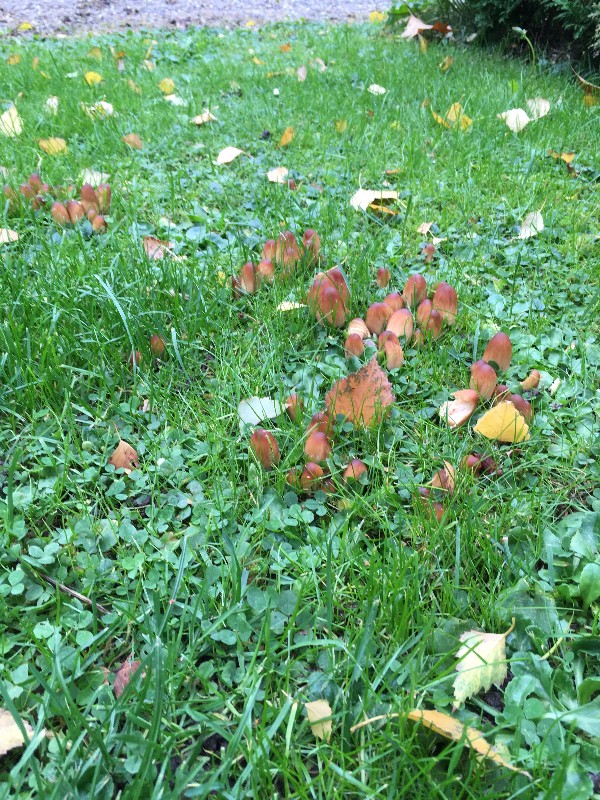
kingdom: Fungi
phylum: Basidiomycota
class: Agaricomycetes
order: Agaricales
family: Psathyrellaceae
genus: Coprinellus
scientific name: Coprinellus micaceus
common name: glimmer-blækhat
